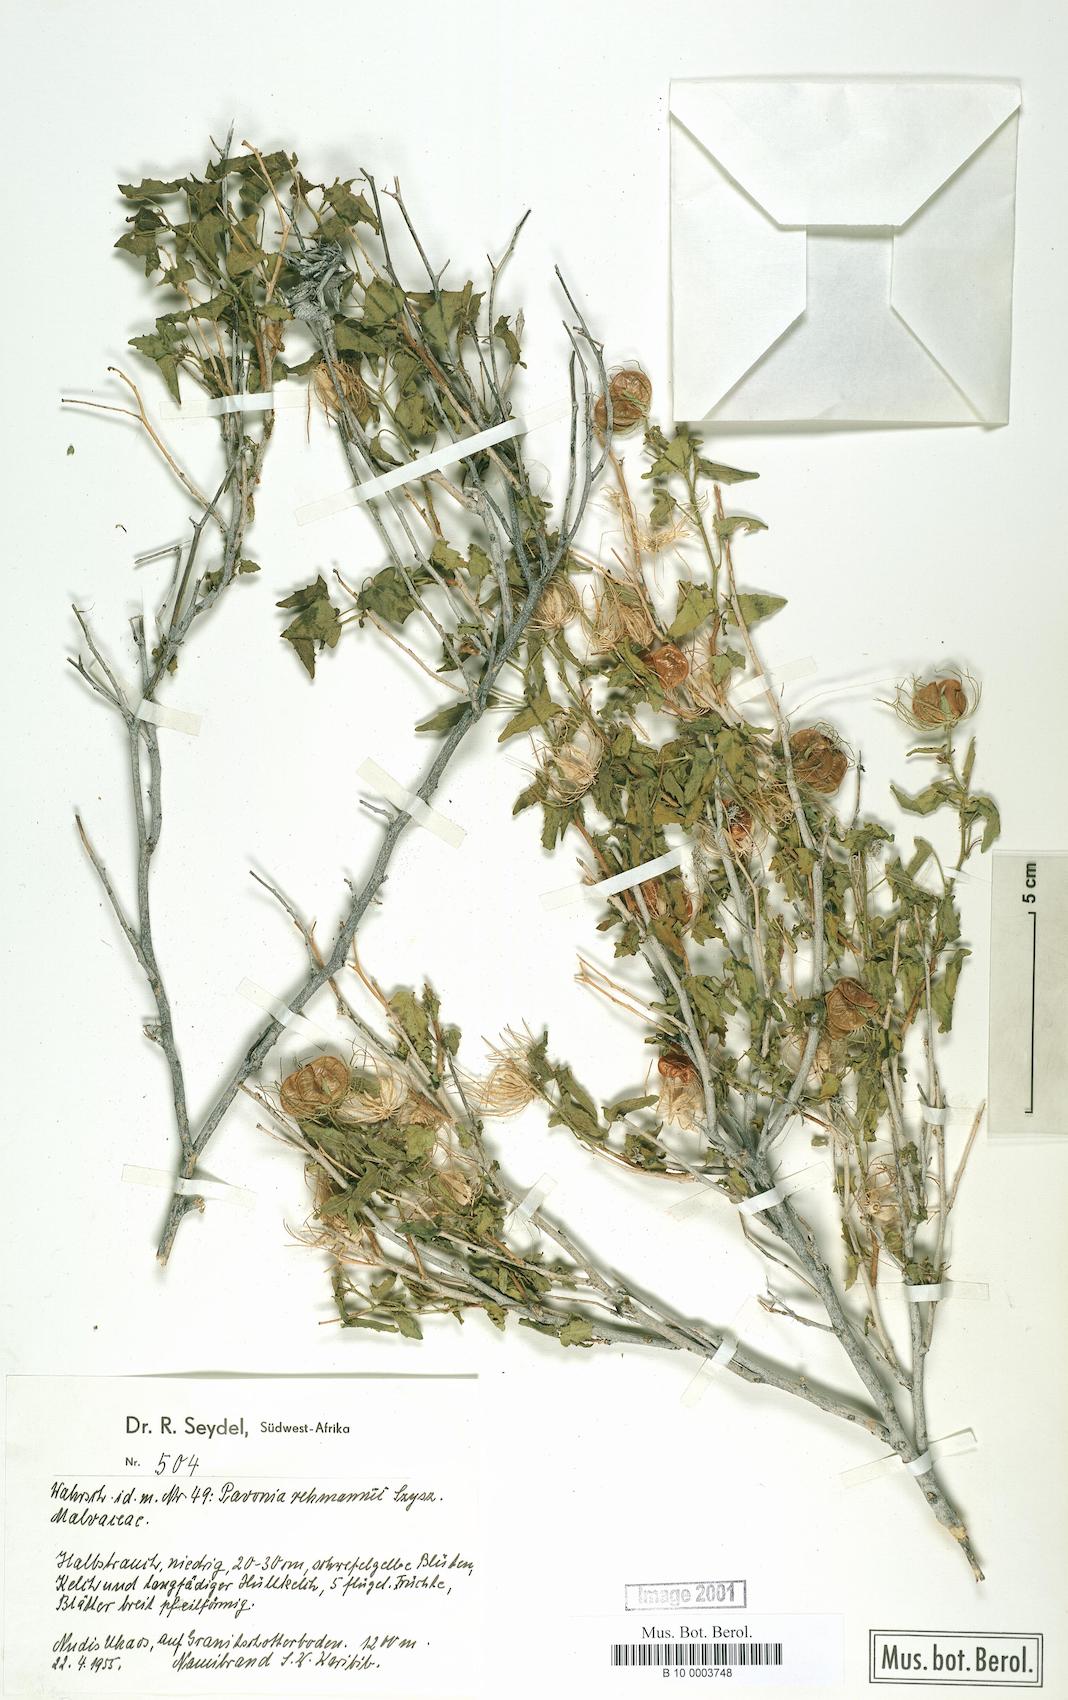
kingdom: Plantae
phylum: Tracheophyta
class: Magnoliopsida
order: Malvales
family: Malvaceae
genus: Pavonia
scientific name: Pavonia rehmannii
